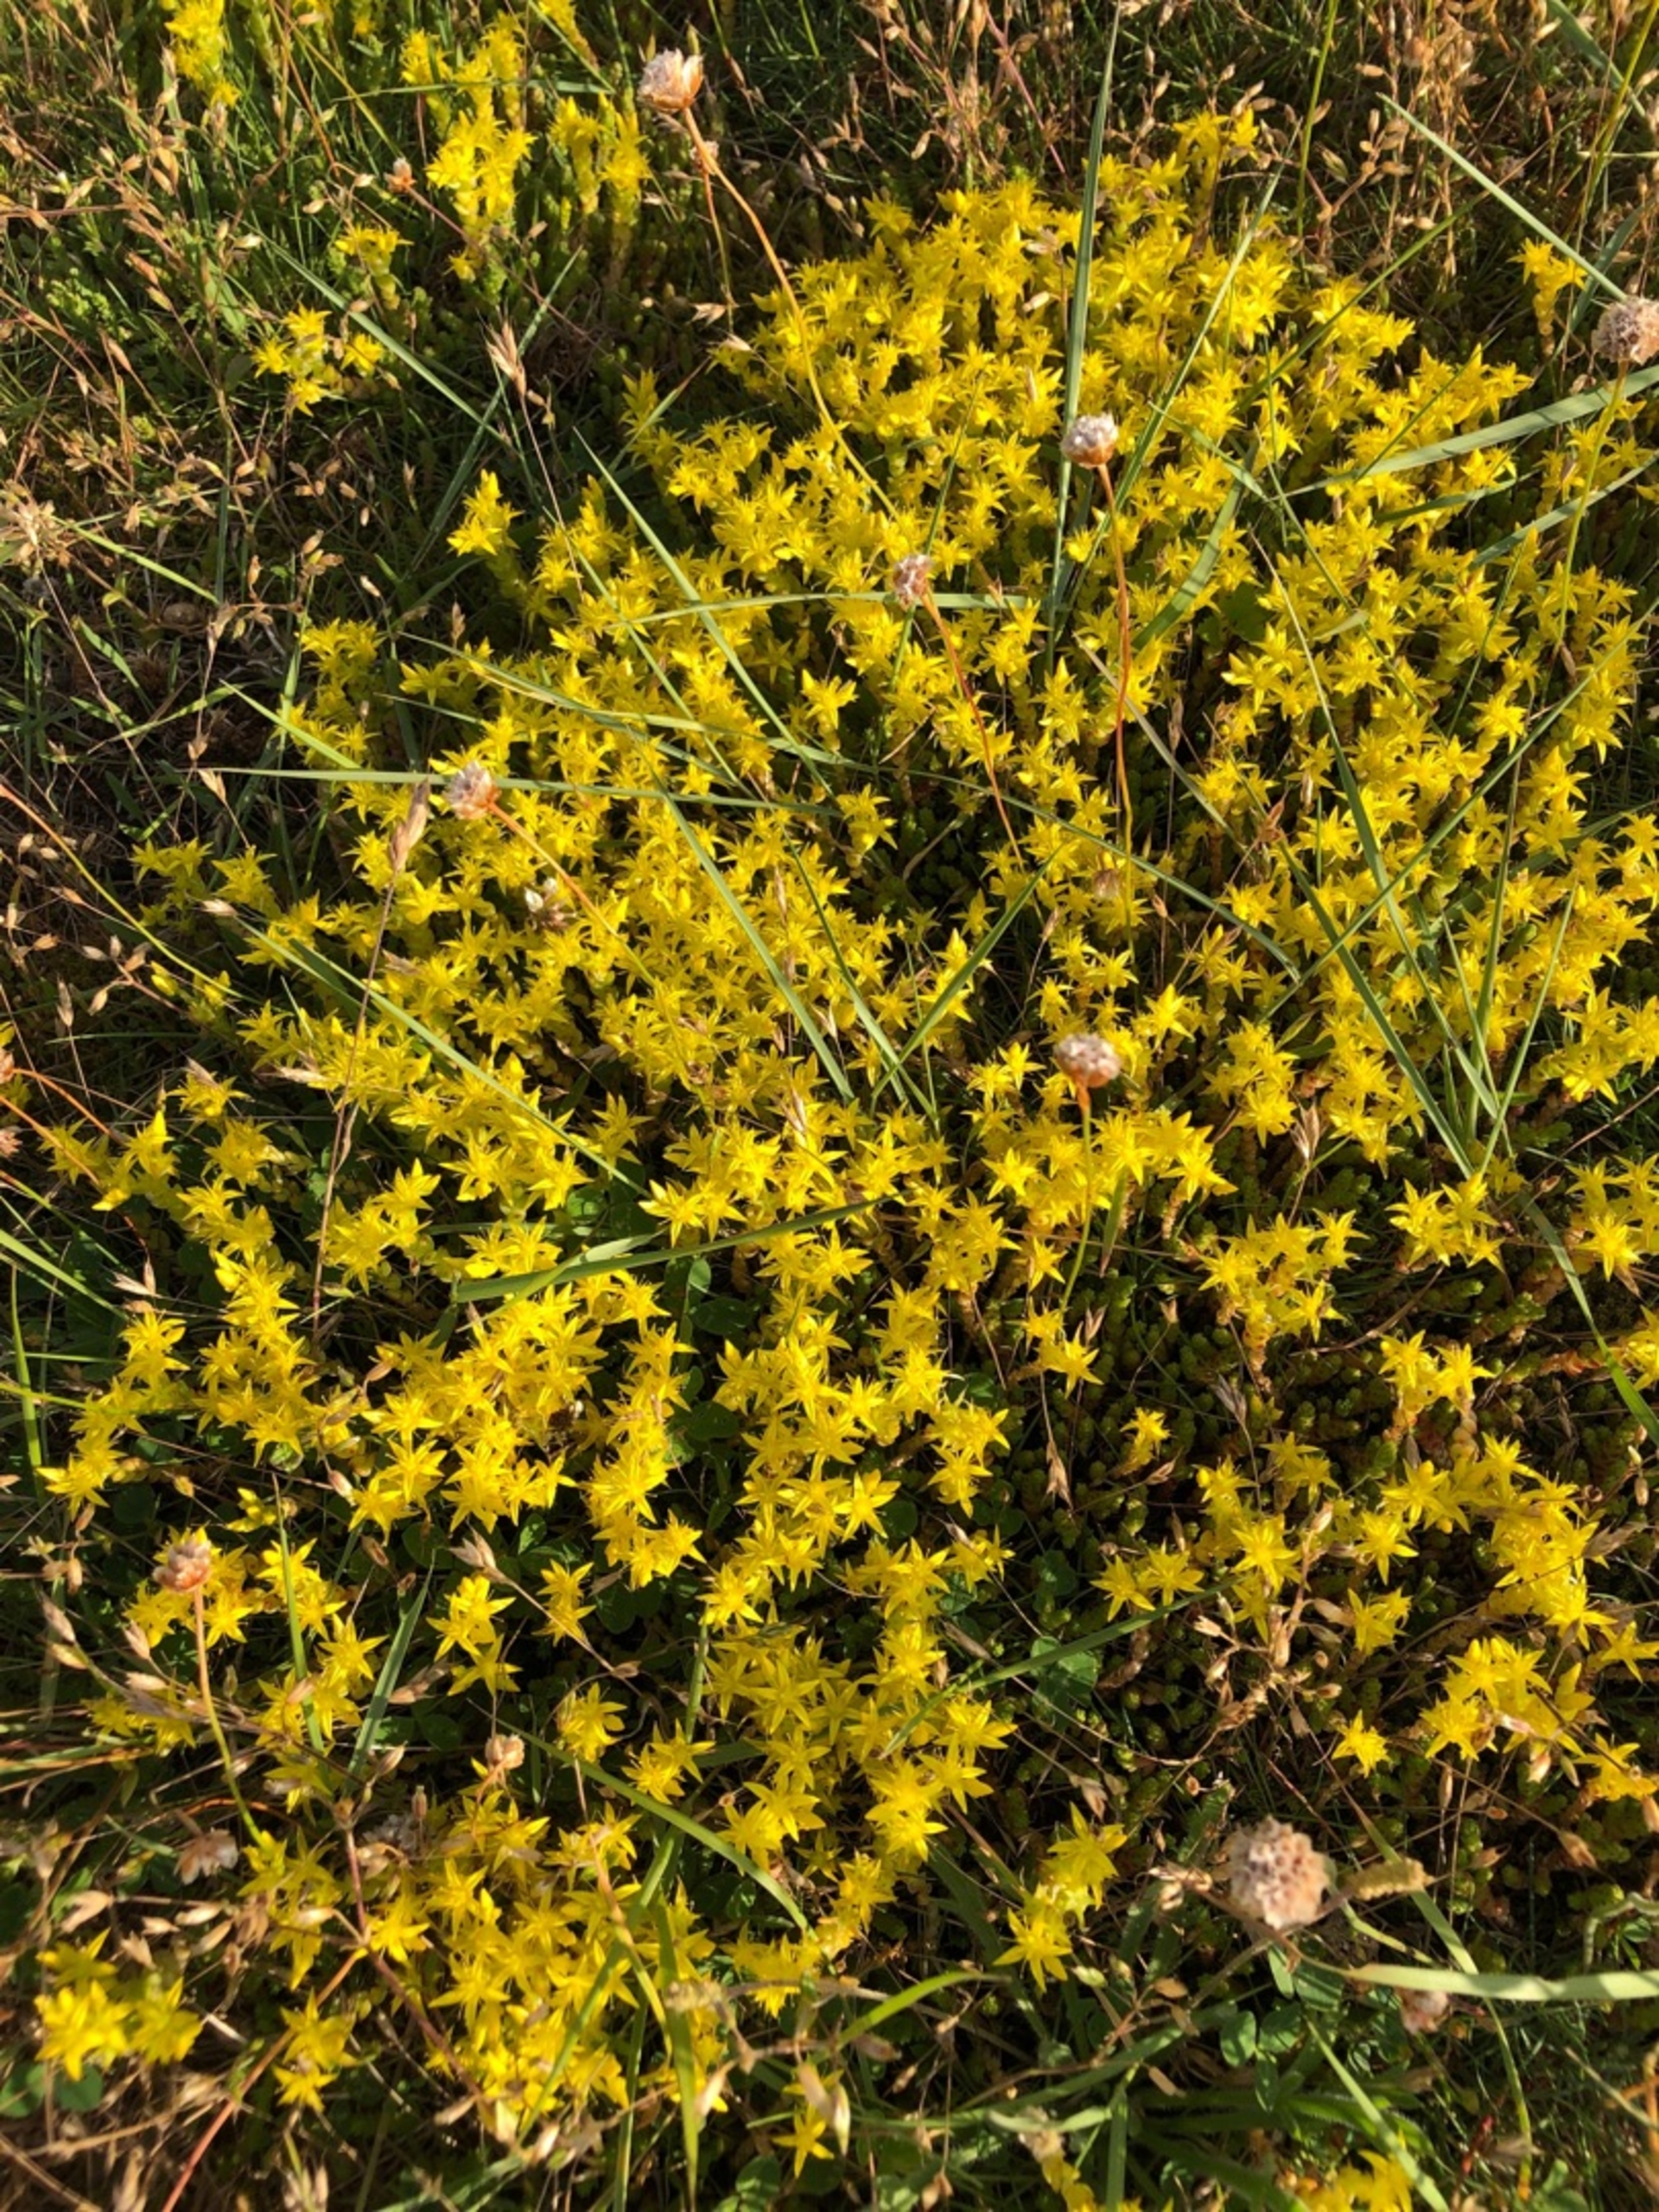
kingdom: Plantae
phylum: Tracheophyta
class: Magnoliopsida
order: Saxifragales
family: Crassulaceae
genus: Sedum
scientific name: Sedum acre
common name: Bidende stenurt
